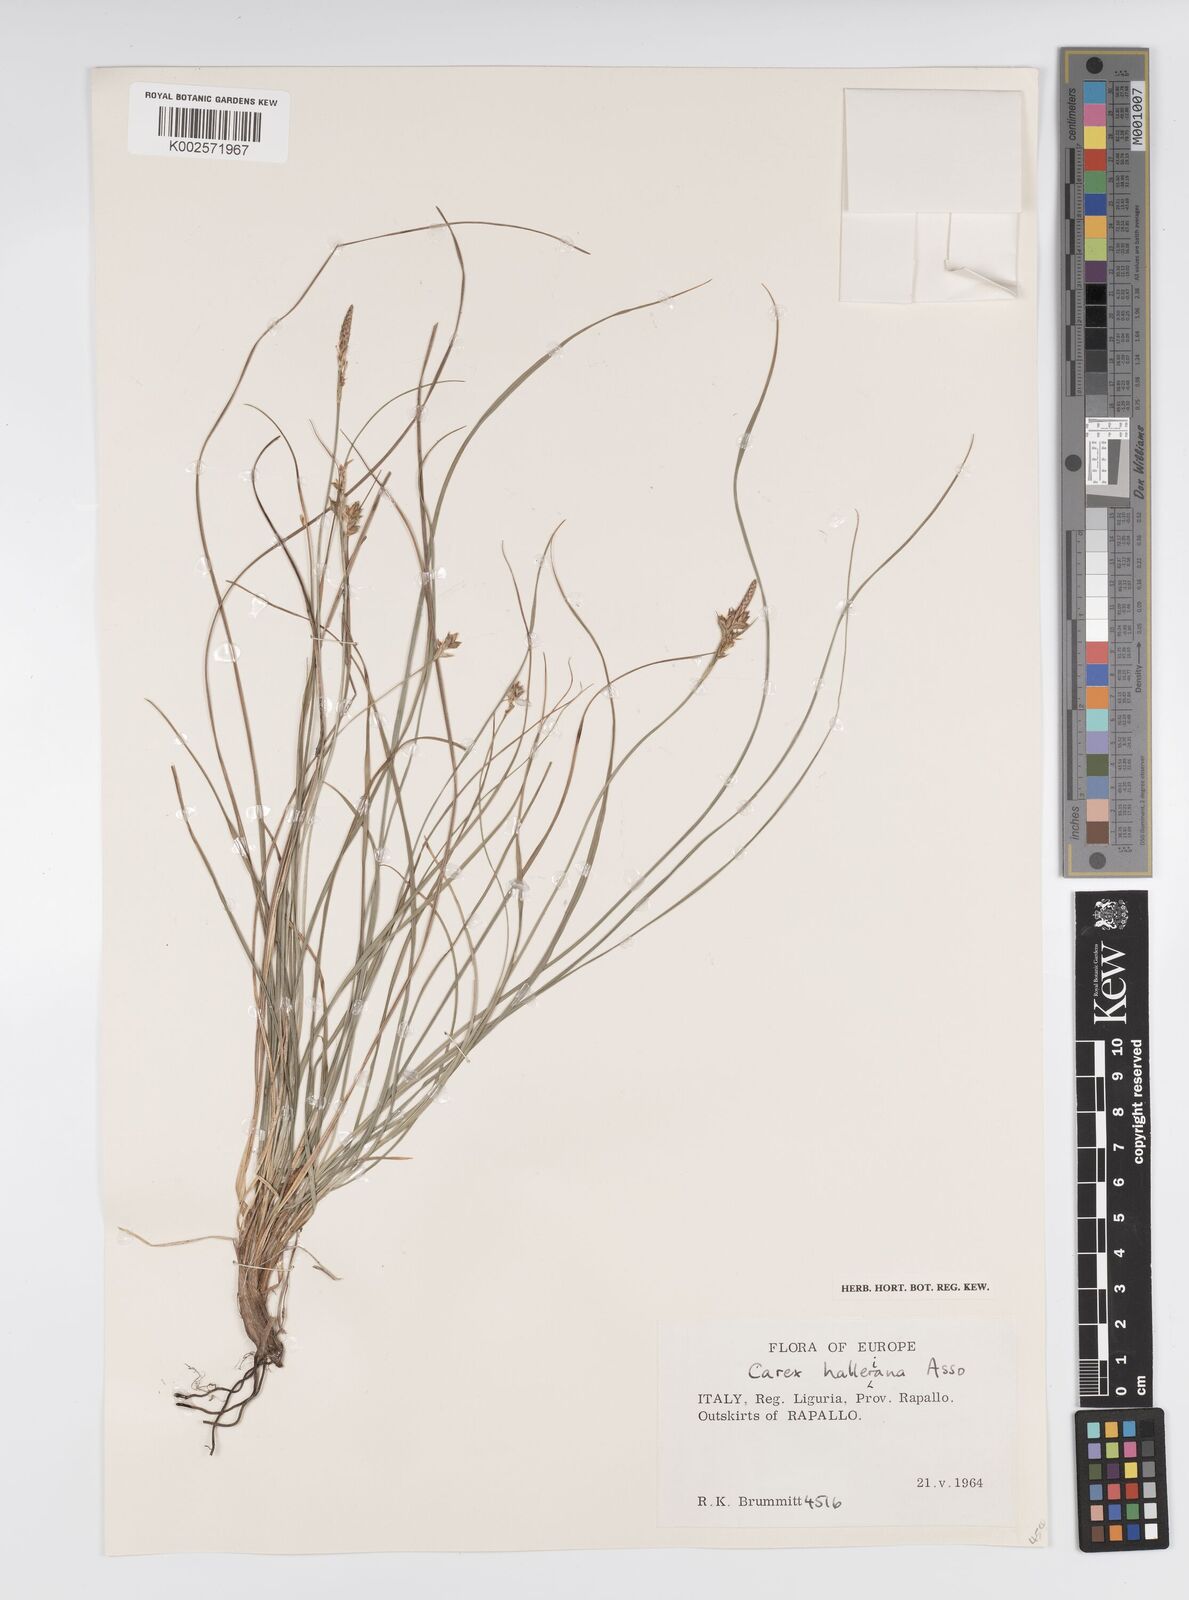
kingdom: Plantae
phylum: Tracheophyta
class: Liliopsida
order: Poales
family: Cyperaceae
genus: Carex
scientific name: Carex halleriana
